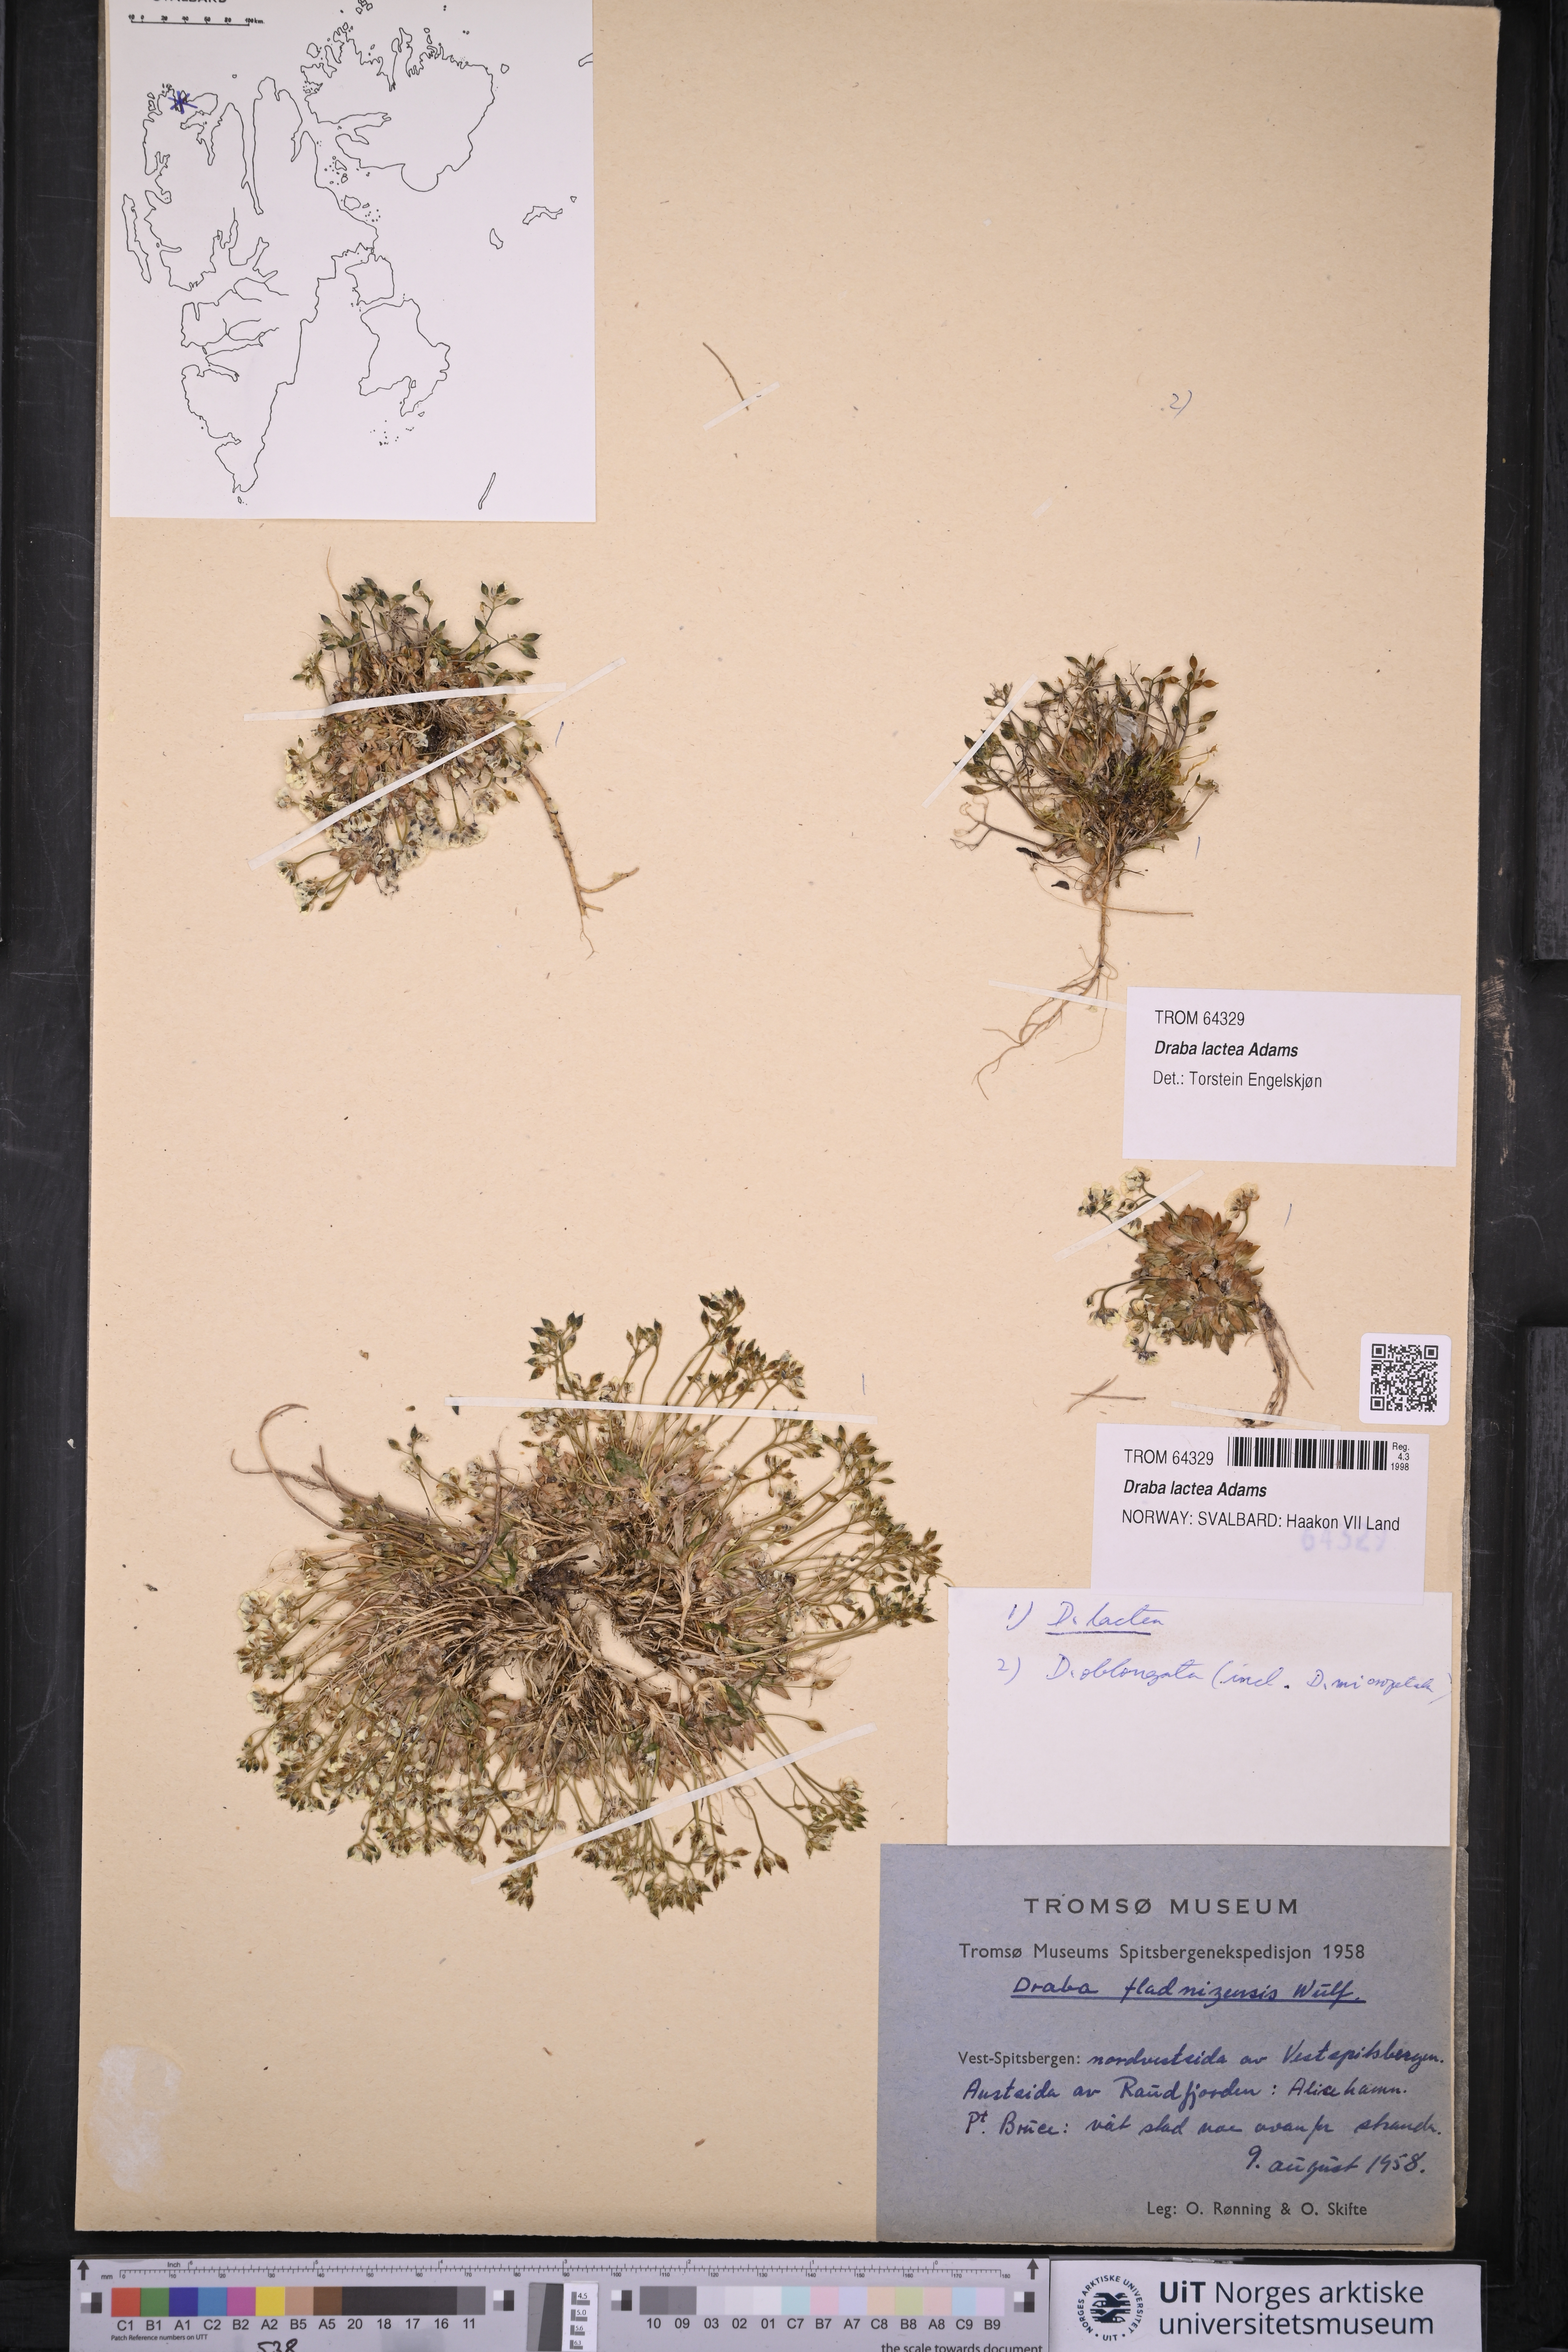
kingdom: Plantae
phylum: Tracheophyta
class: Magnoliopsida
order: Brassicales
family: Brassicaceae
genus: Draba
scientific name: Draba lactea
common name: Milky draba
